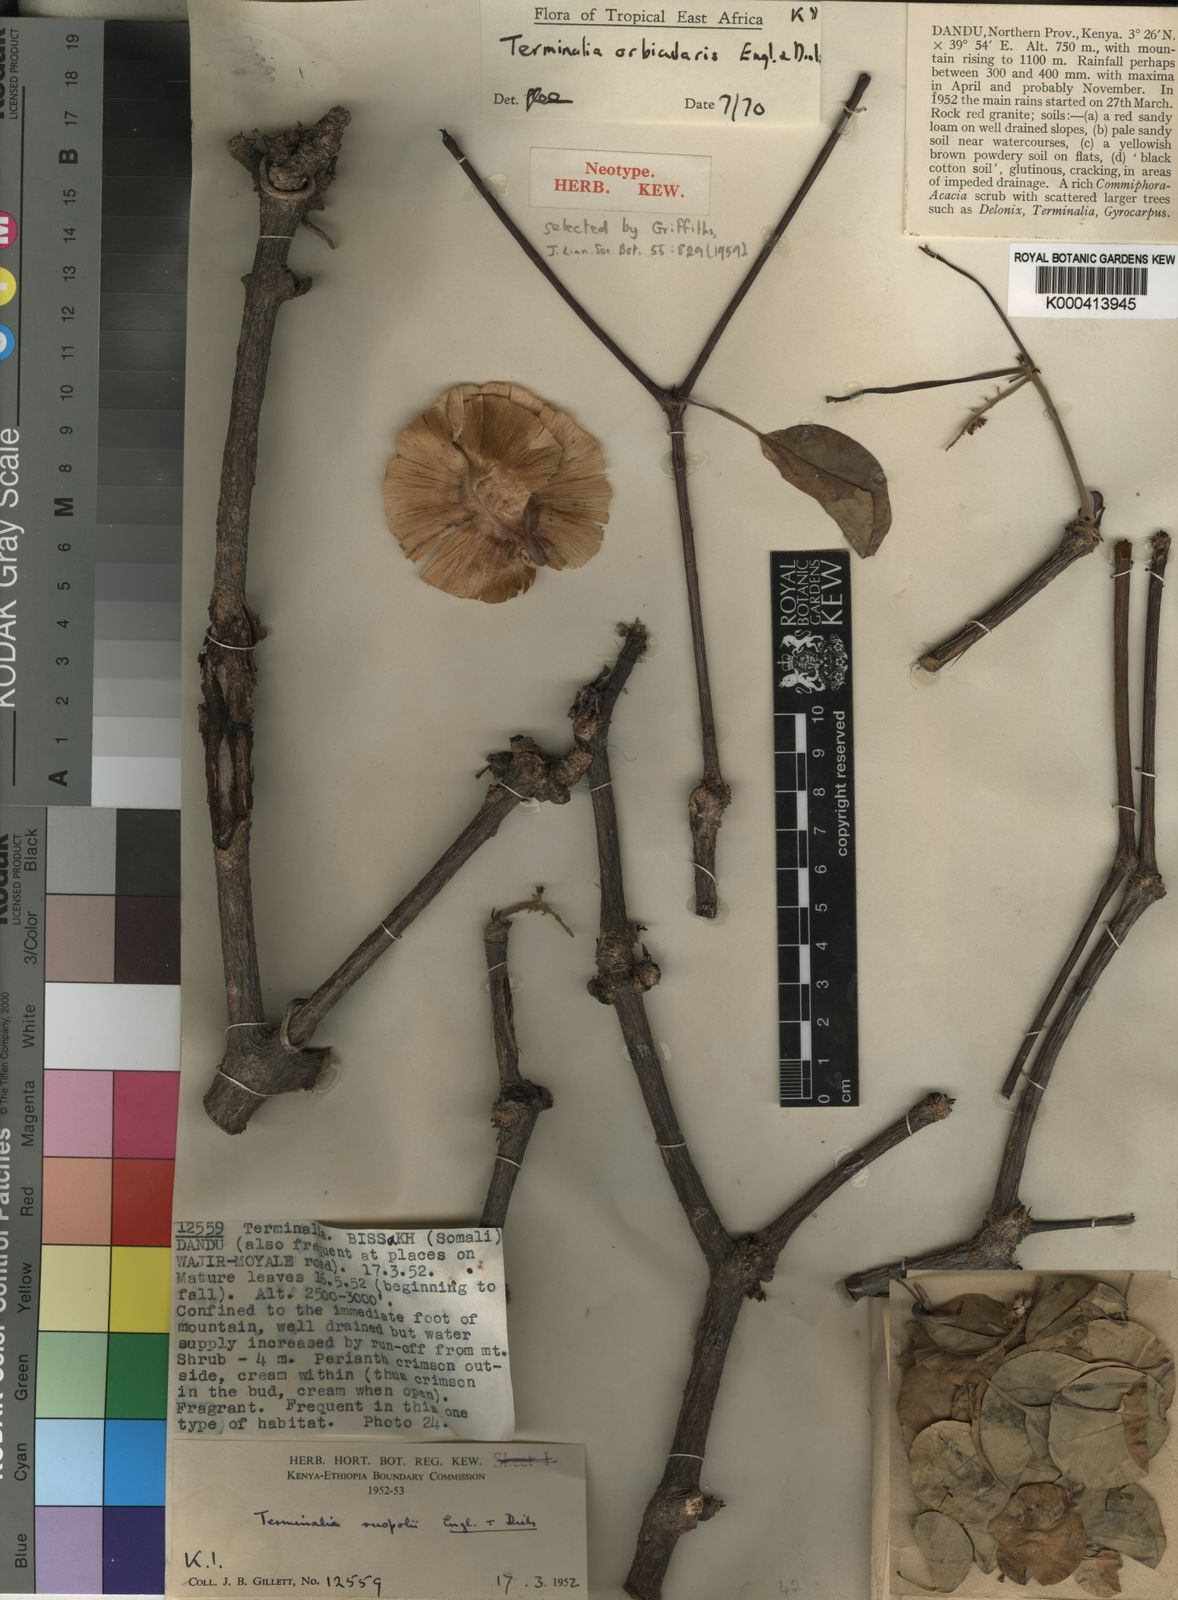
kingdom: Plantae
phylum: Tracheophyta
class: Magnoliopsida
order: Myrtales
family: Combretaceae
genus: Terminalia
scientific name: Terminalia orbicularis
